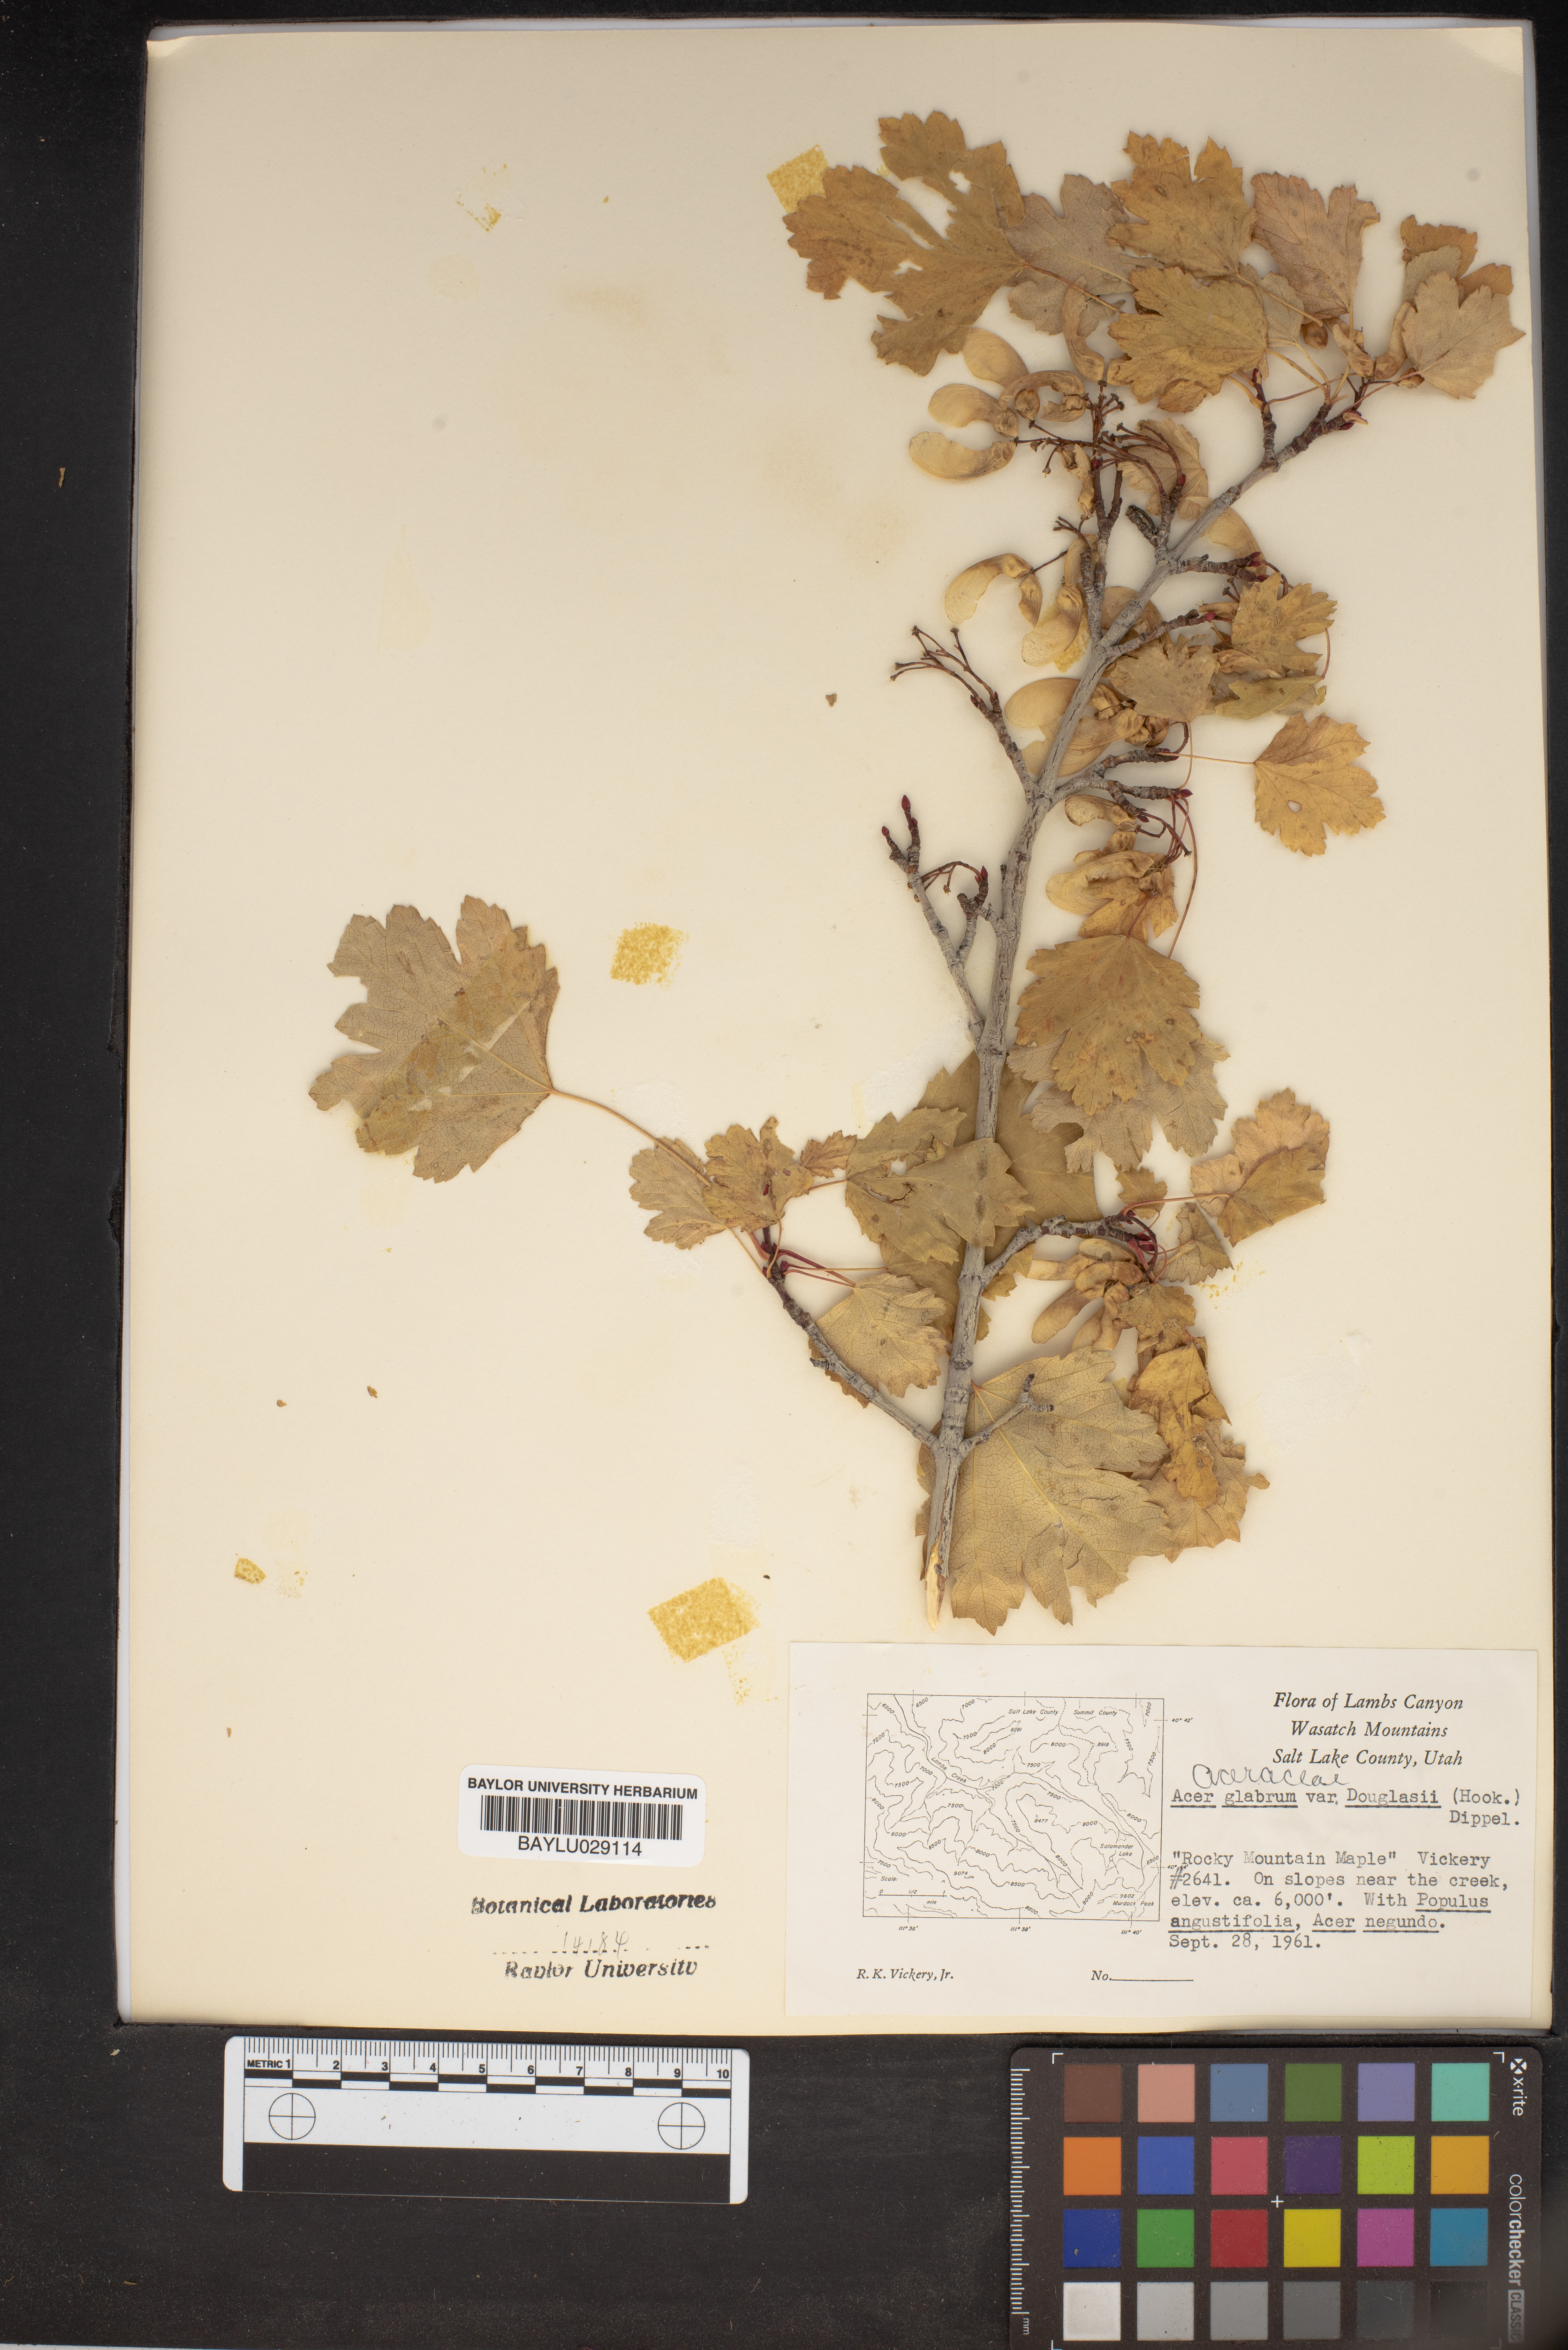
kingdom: Plantae
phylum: Tracheophyta
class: Magnoliopsida
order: Sapindales
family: Sapindaceae
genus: Acer
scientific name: Acer glabrum
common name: Rocky mountain maple
